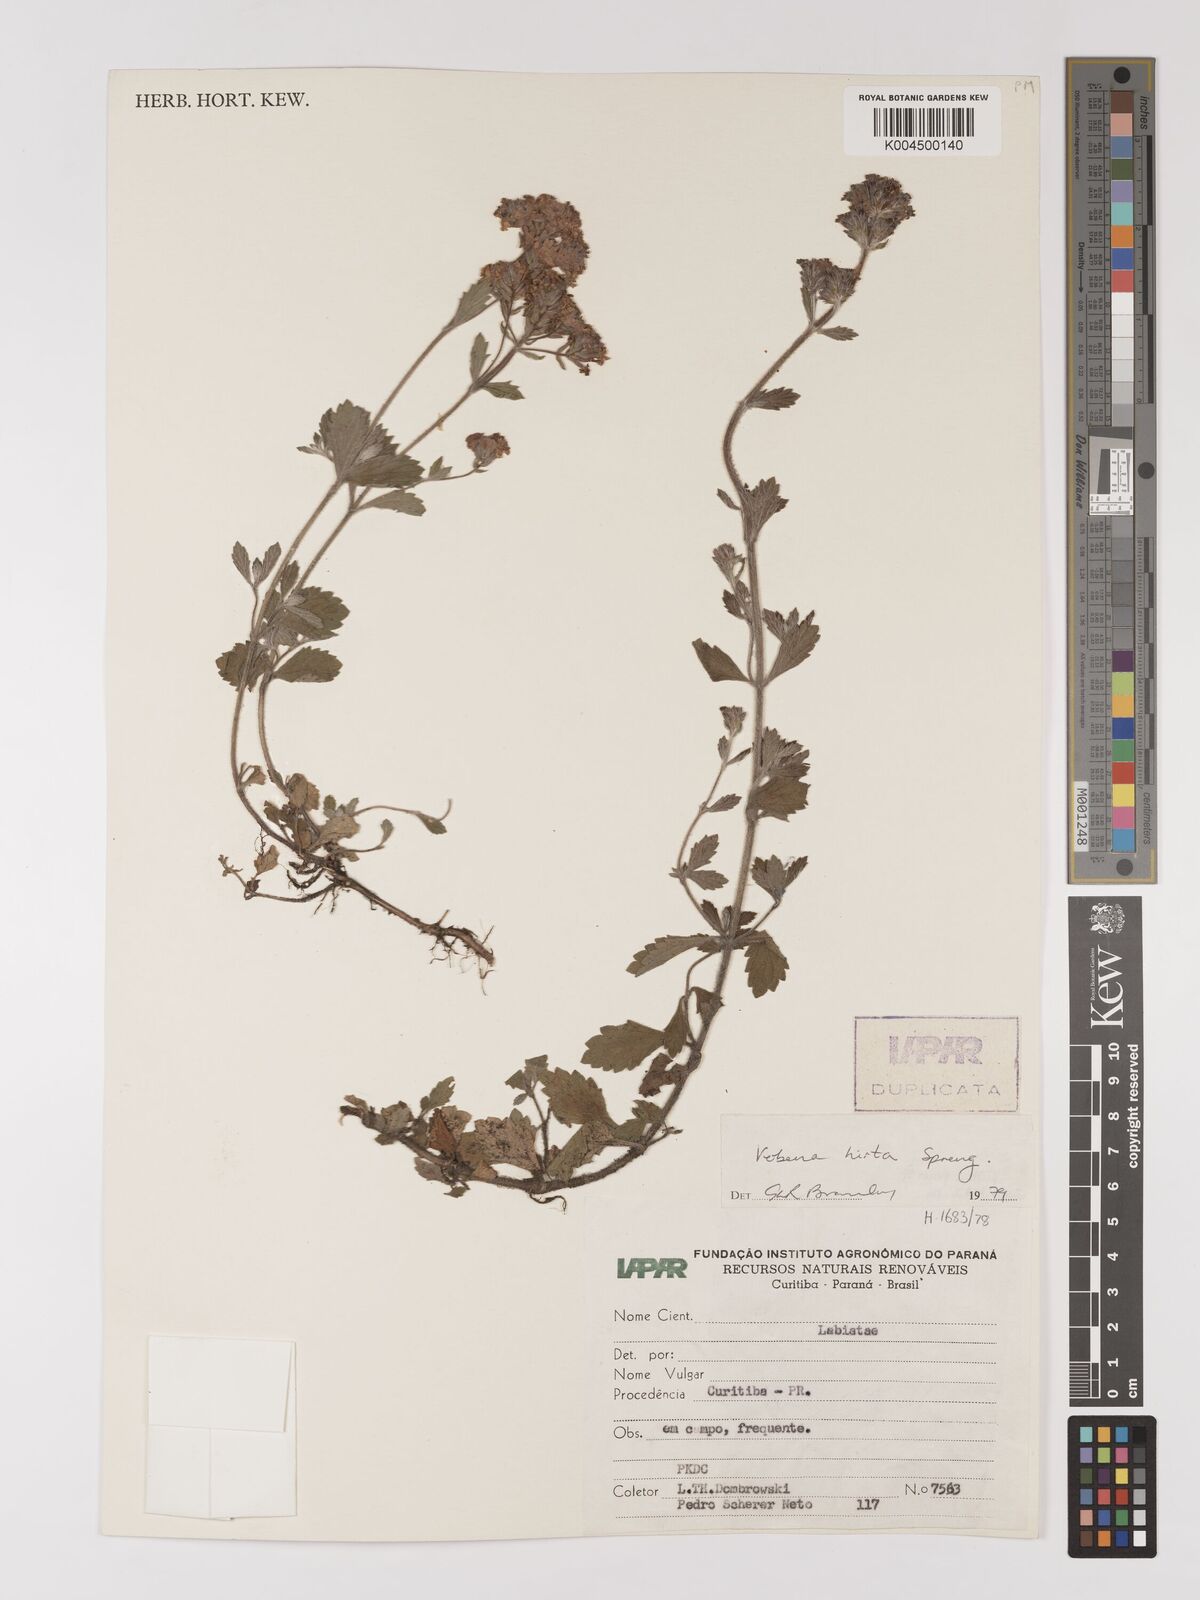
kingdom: Plantae
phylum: Tracheophyta
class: Magnoliopsida
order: Lamiales
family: Verbenaceae
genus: Verbena
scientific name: Verbena hirta
